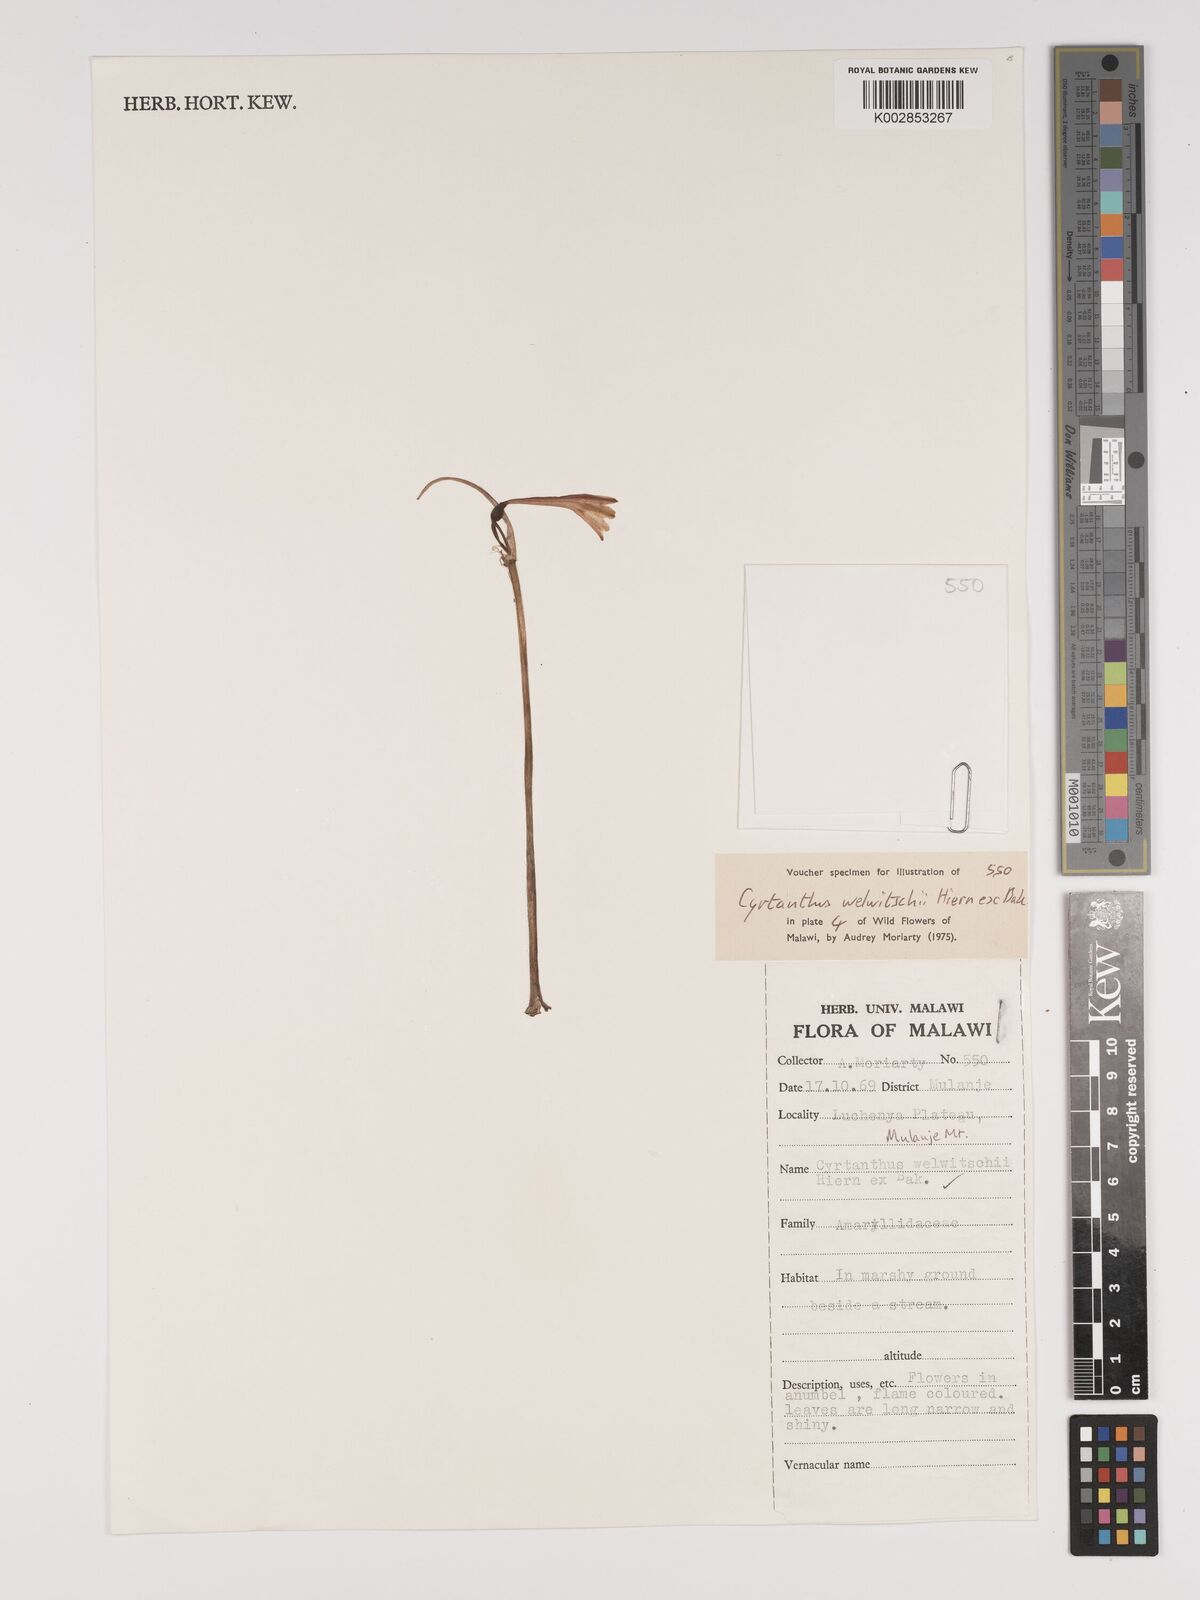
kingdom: Plantae
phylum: Tracheophyta
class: Liliopsida
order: Asparagales
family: Amaryllidaceae
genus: Cyrtanthus
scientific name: Cyrtanthus welwitschii
